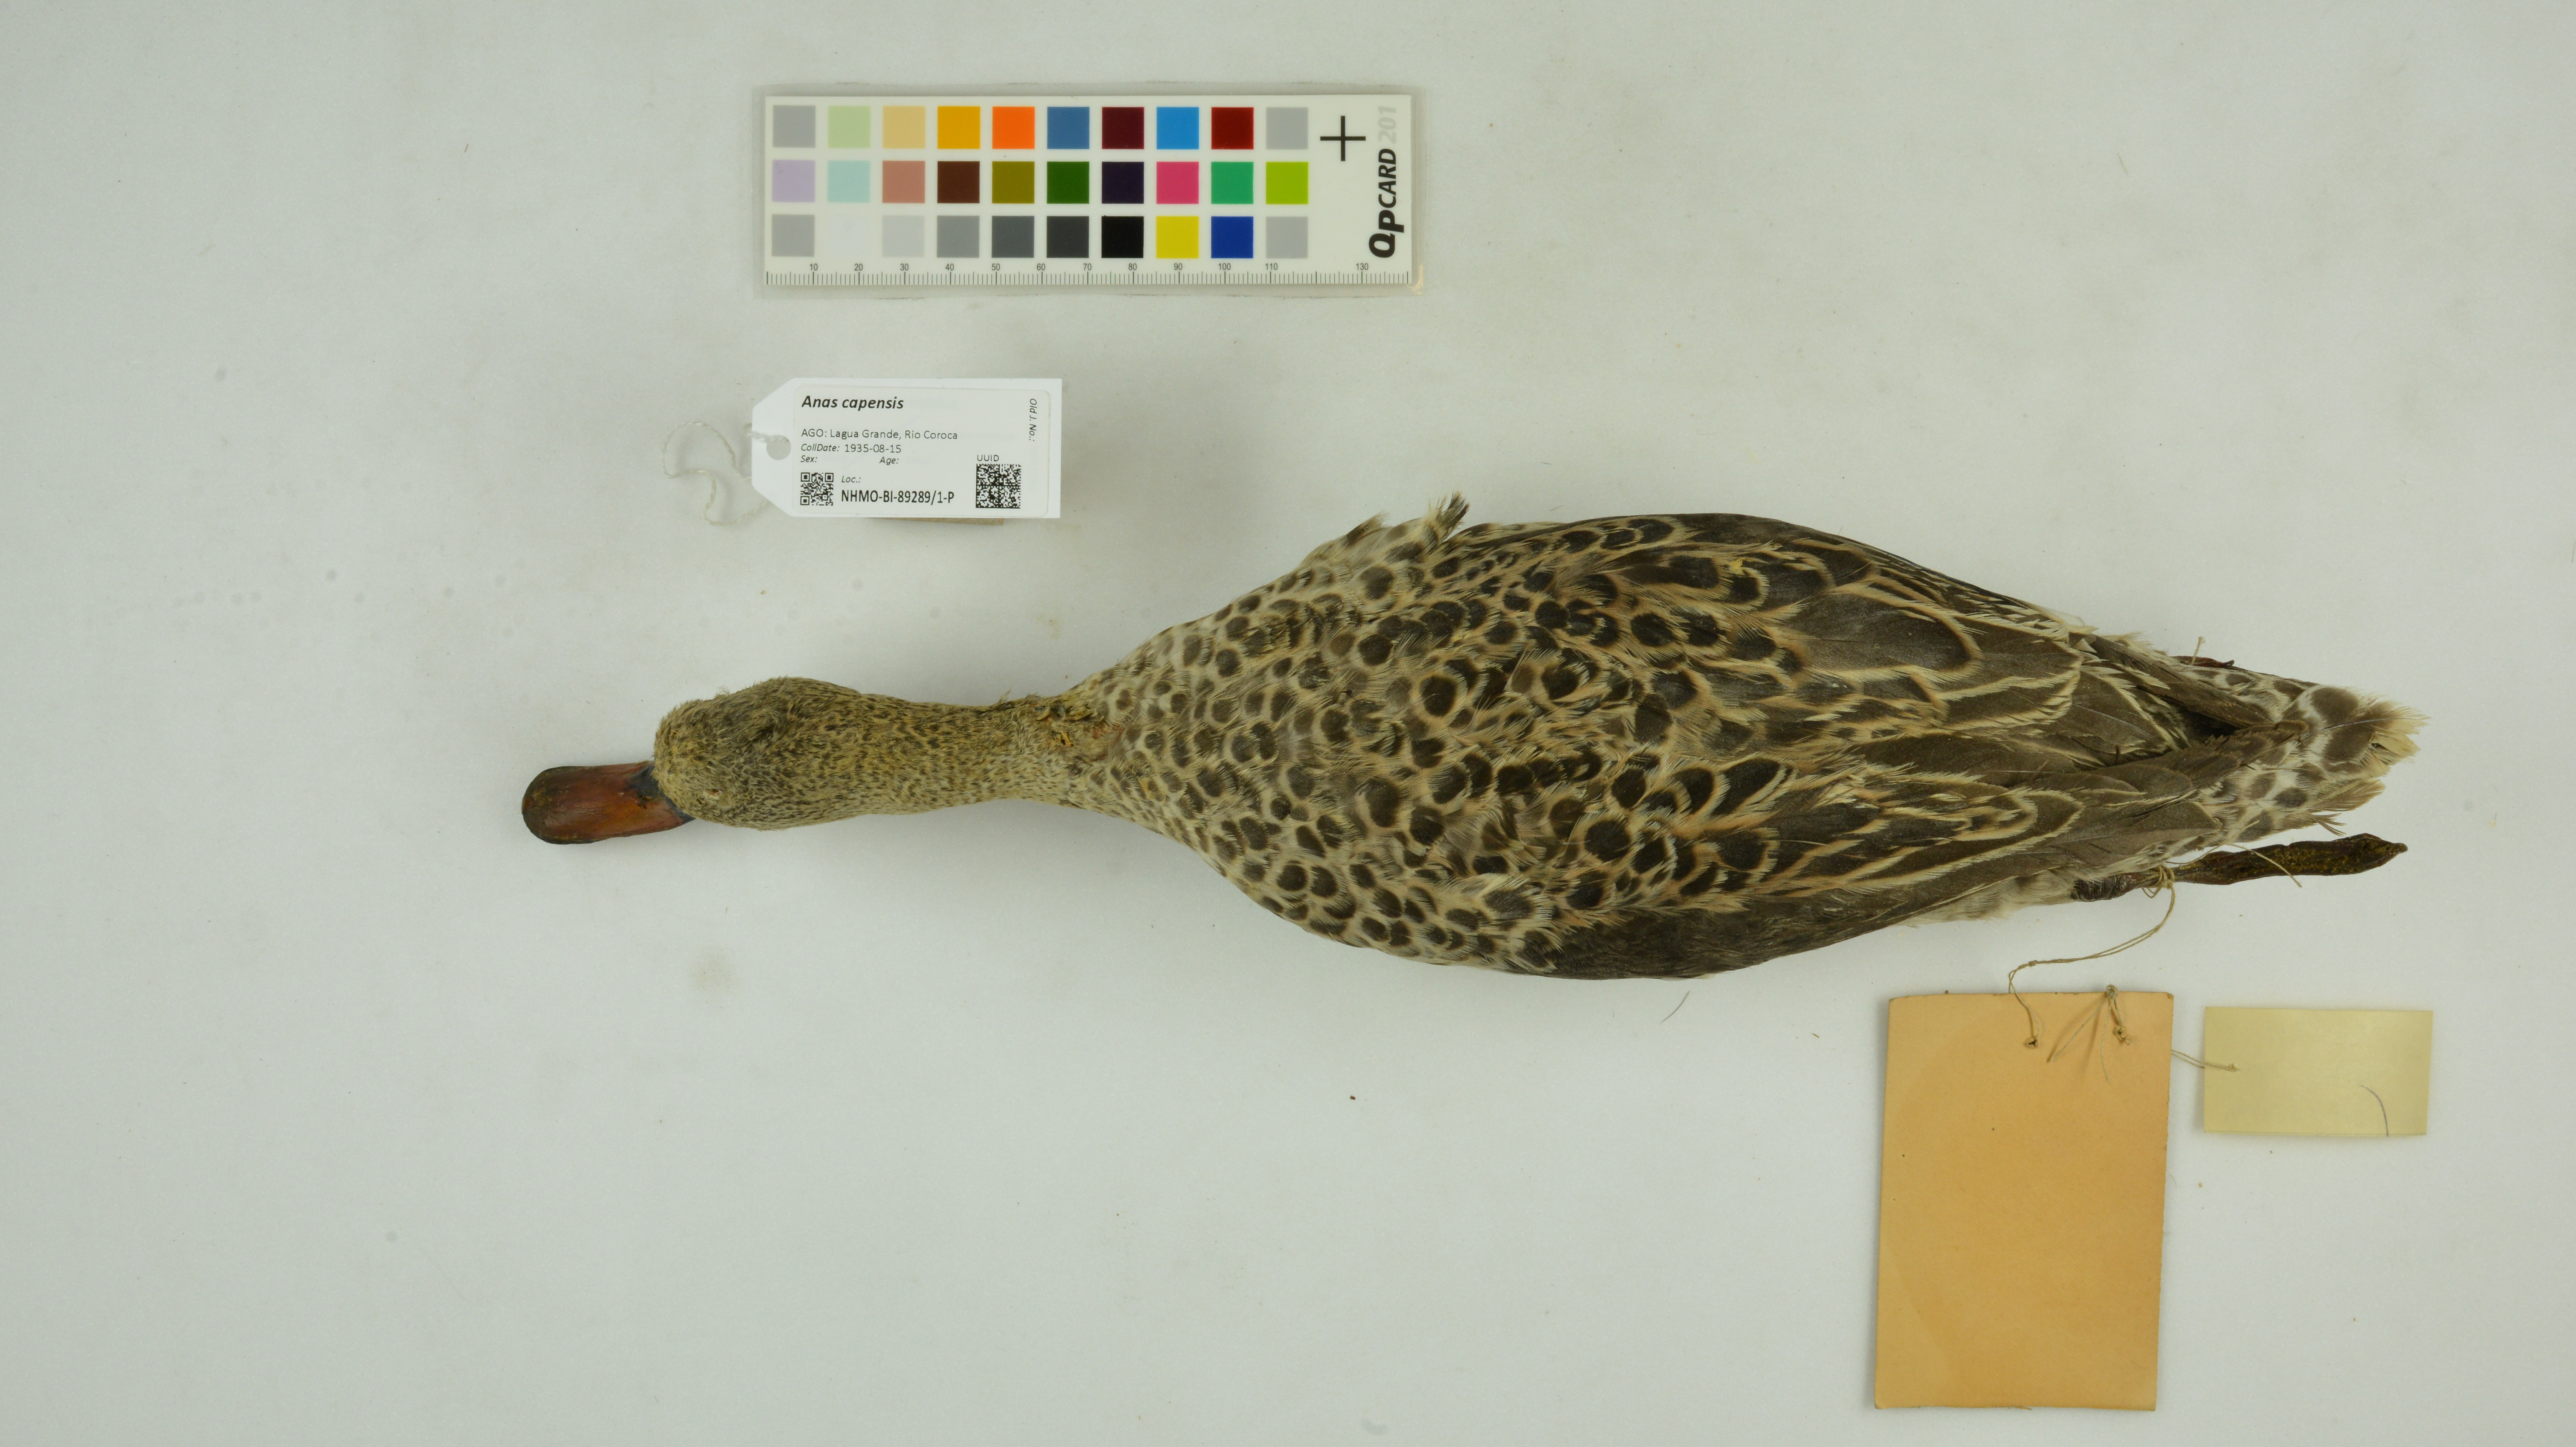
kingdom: Animalia
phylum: Chordata
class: Aves
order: Anseriformes
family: Anatidae
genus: Anas
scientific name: Anas capensis
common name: Cape teal
